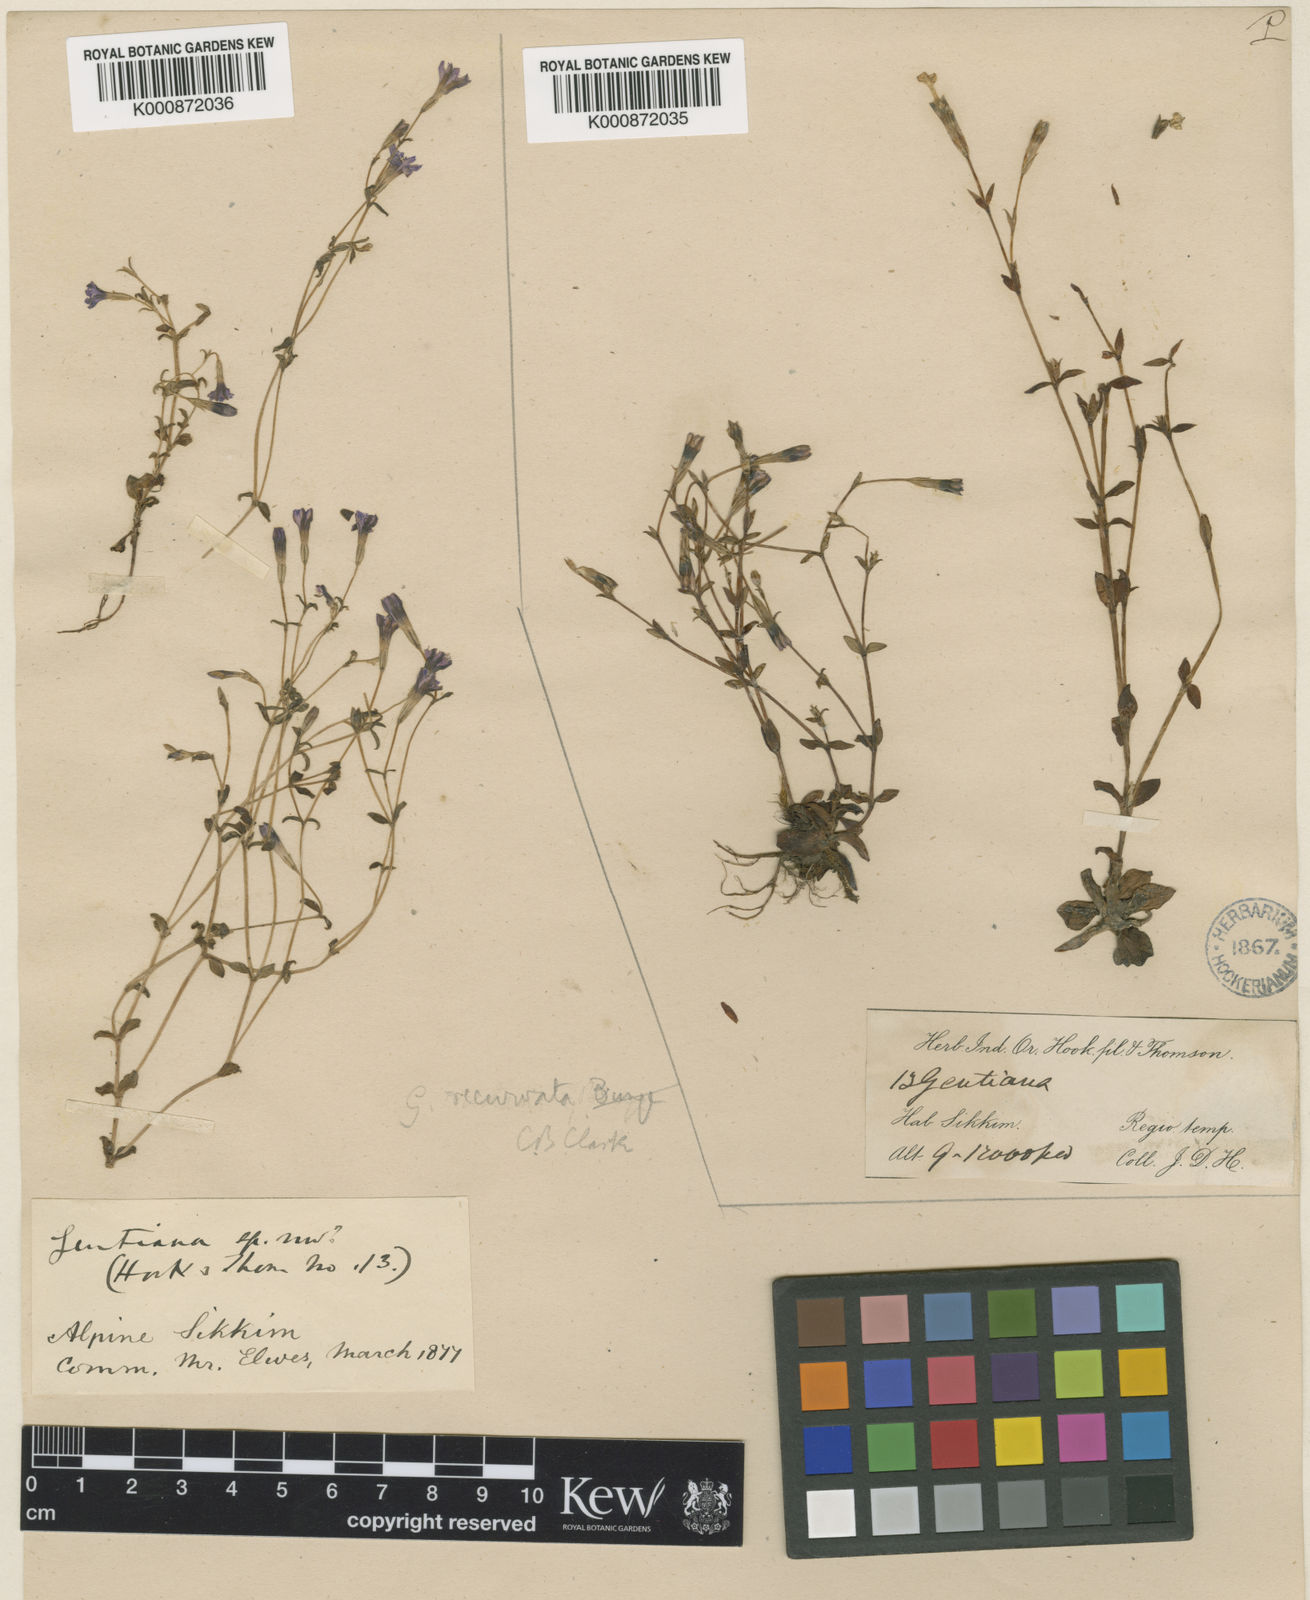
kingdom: Plantae
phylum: Tracheophyta
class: Magnoliopsida
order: Gentianales
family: Gentianaceae
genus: Gentiana
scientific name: Gentiana recurvata
